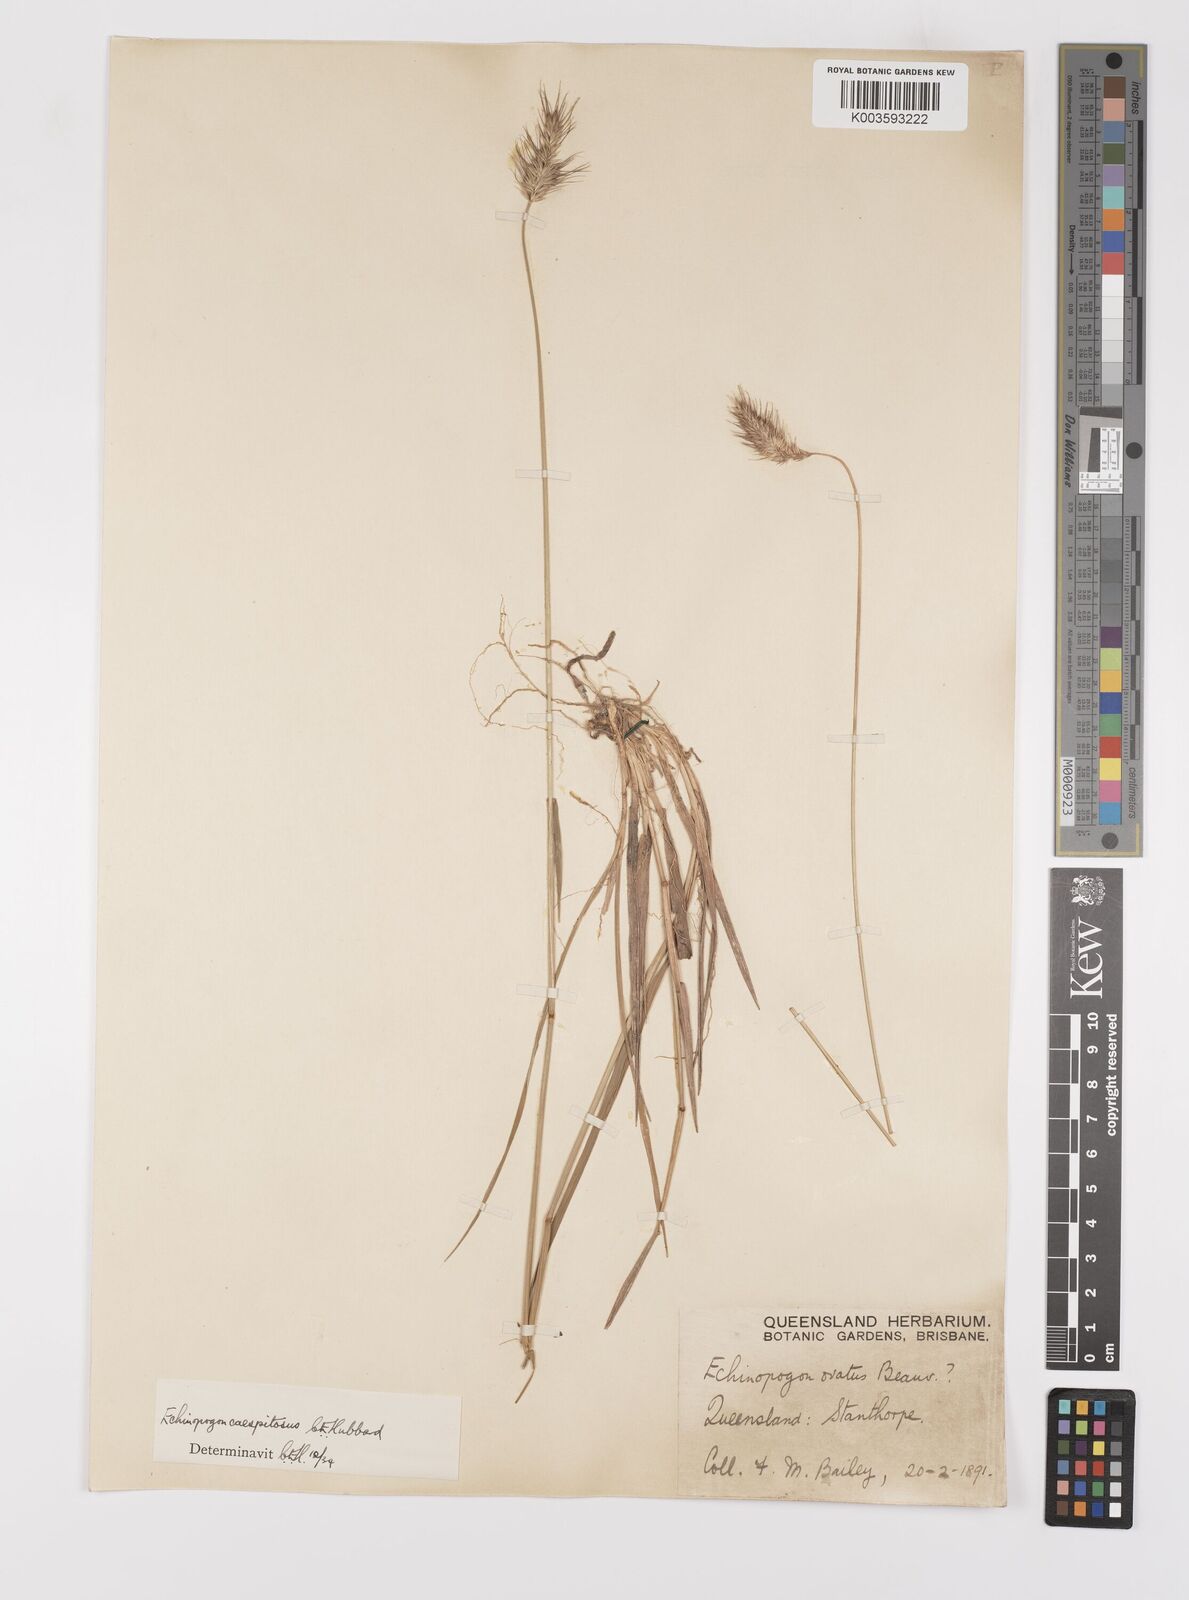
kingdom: Plantae
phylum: Tracheophyta
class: Liliopsida
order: Poales
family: Poaceae
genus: Echinopogon
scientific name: Echinopogon caespitosus
